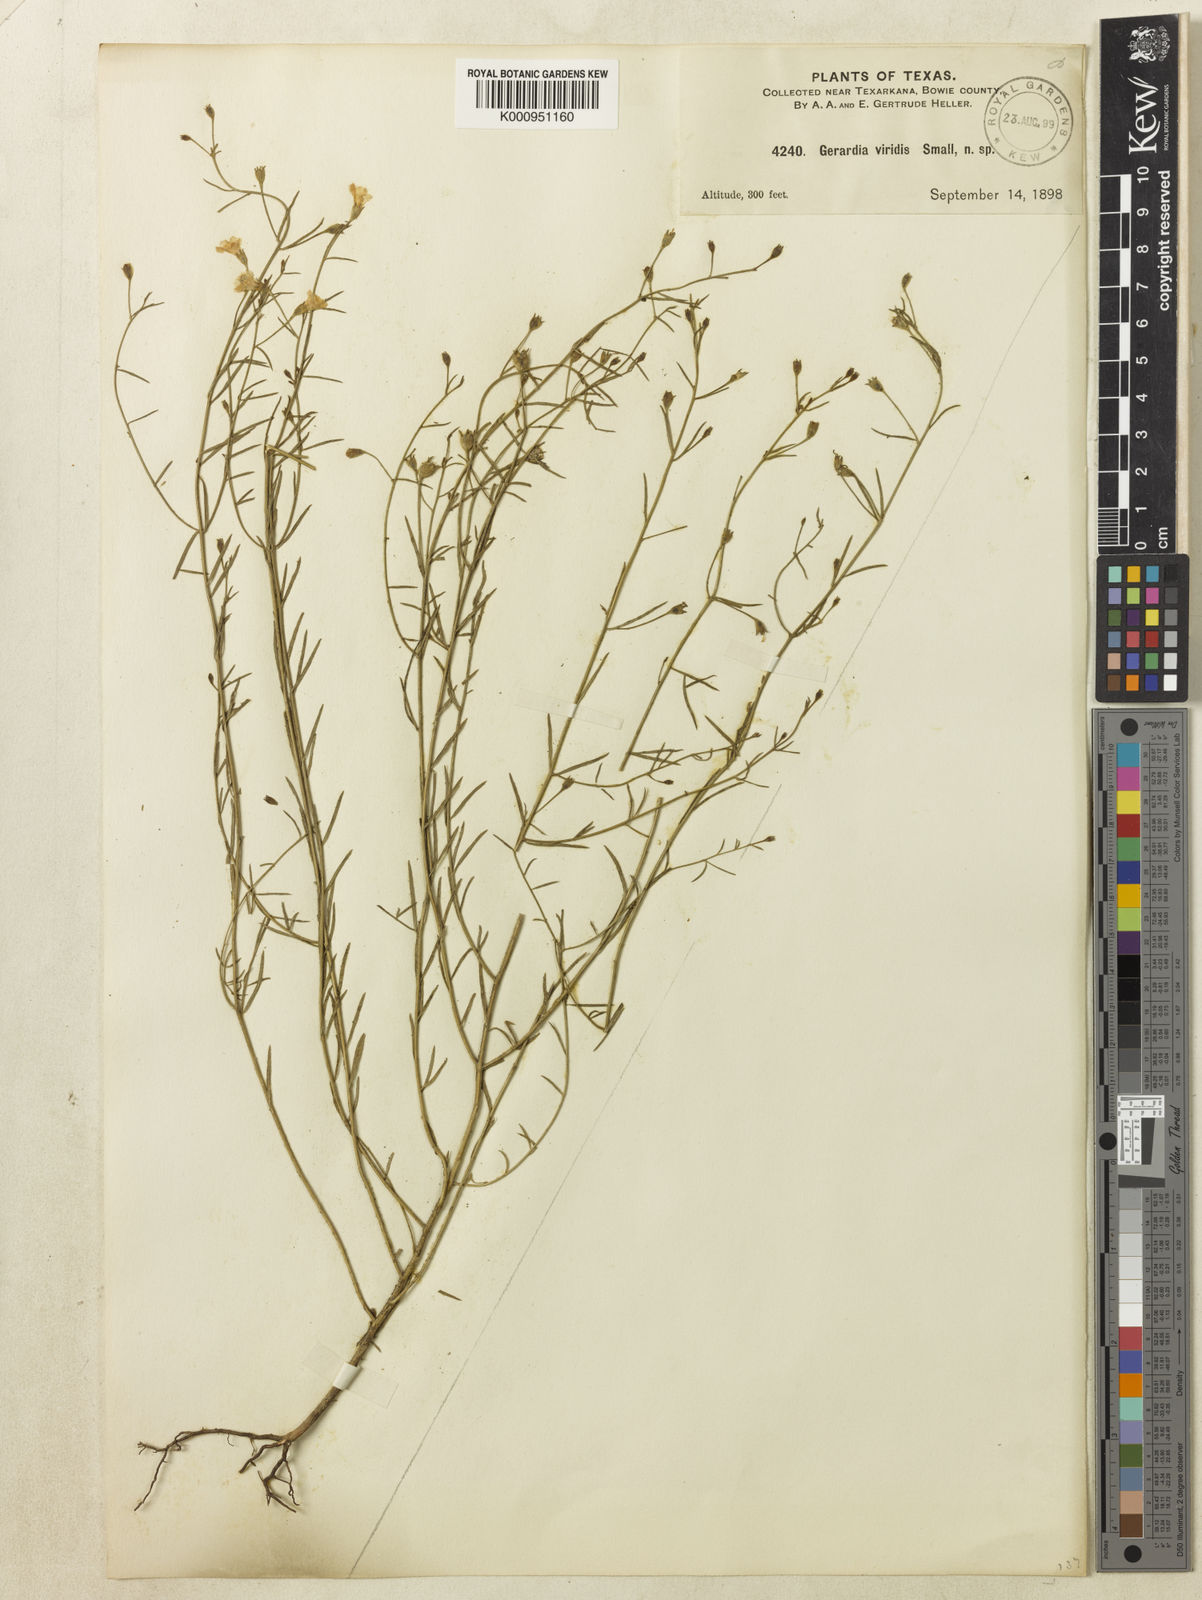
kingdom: Plantae
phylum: Tracheophyta
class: Magnoliopsida
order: Lamiales
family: Orobanchaceae
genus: Agalinis
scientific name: Agalinis viridis
